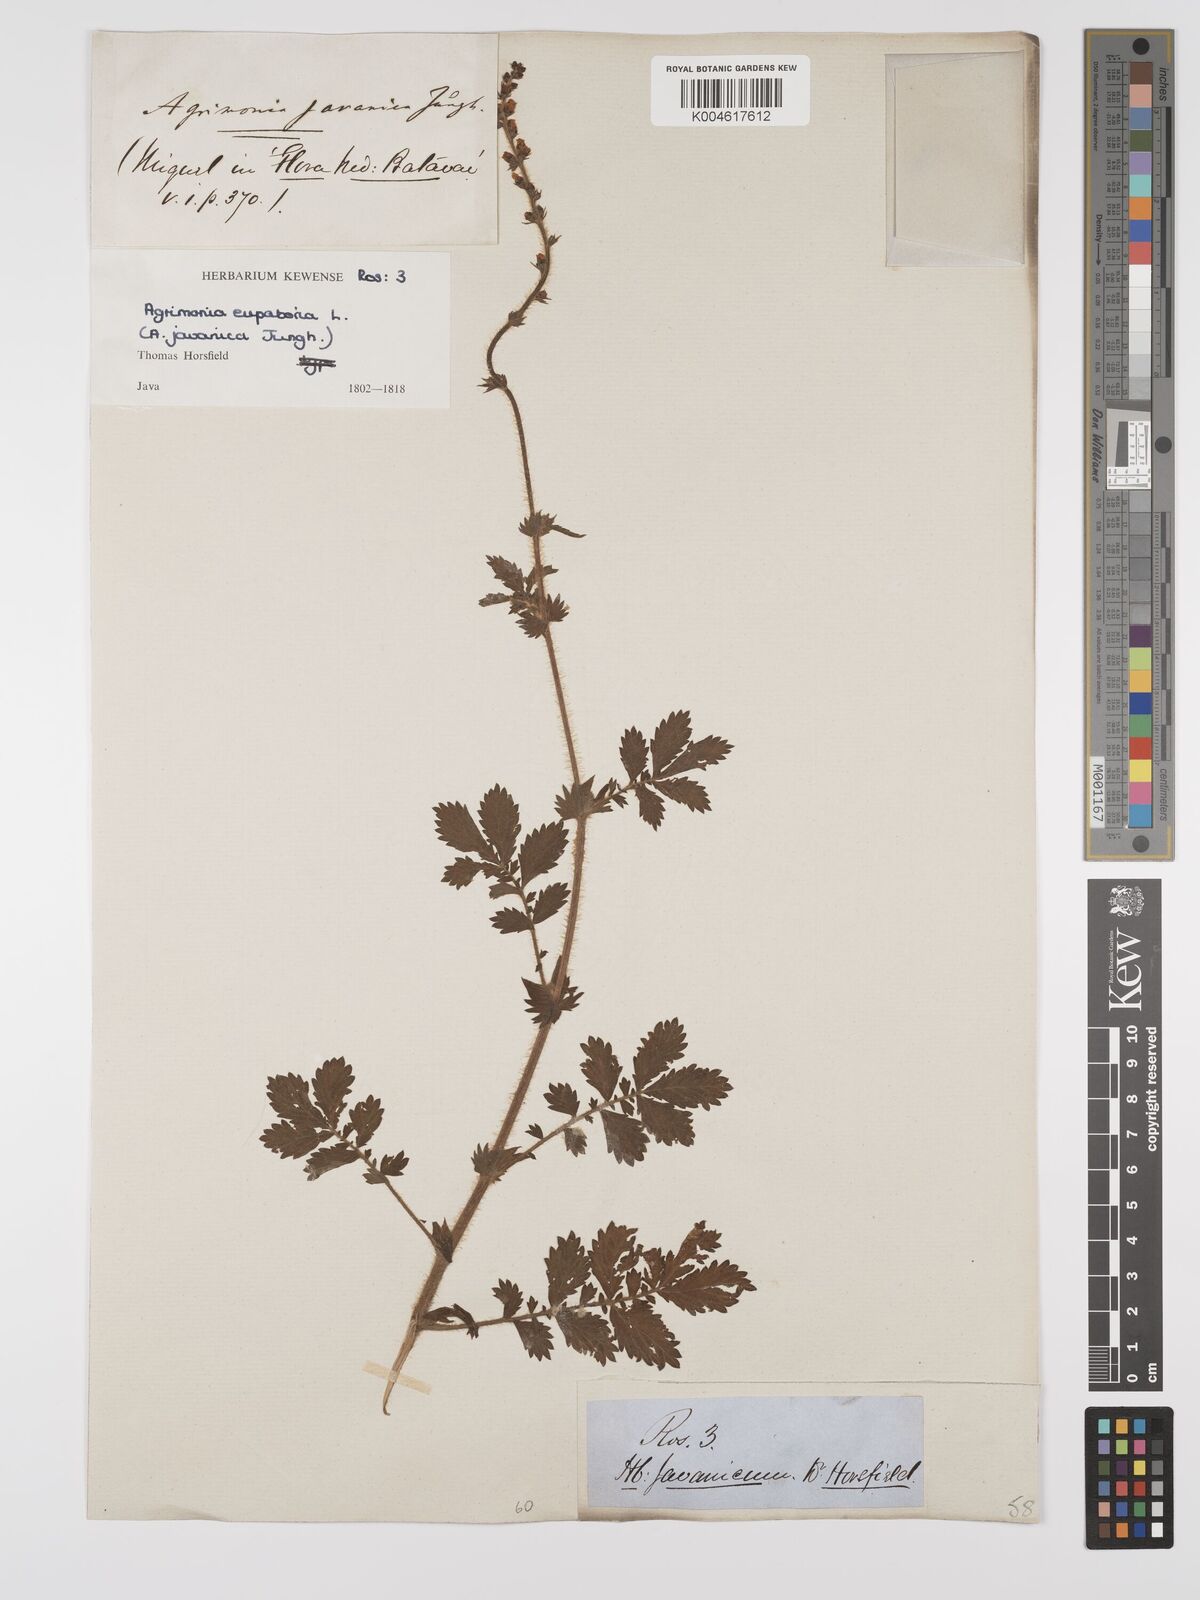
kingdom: Plantae
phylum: Tracheophyta
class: Magnoliopsida
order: Rosales
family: Rosaceae
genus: Agrimonia
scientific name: Agrimonia eupatoria
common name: Agrimony
